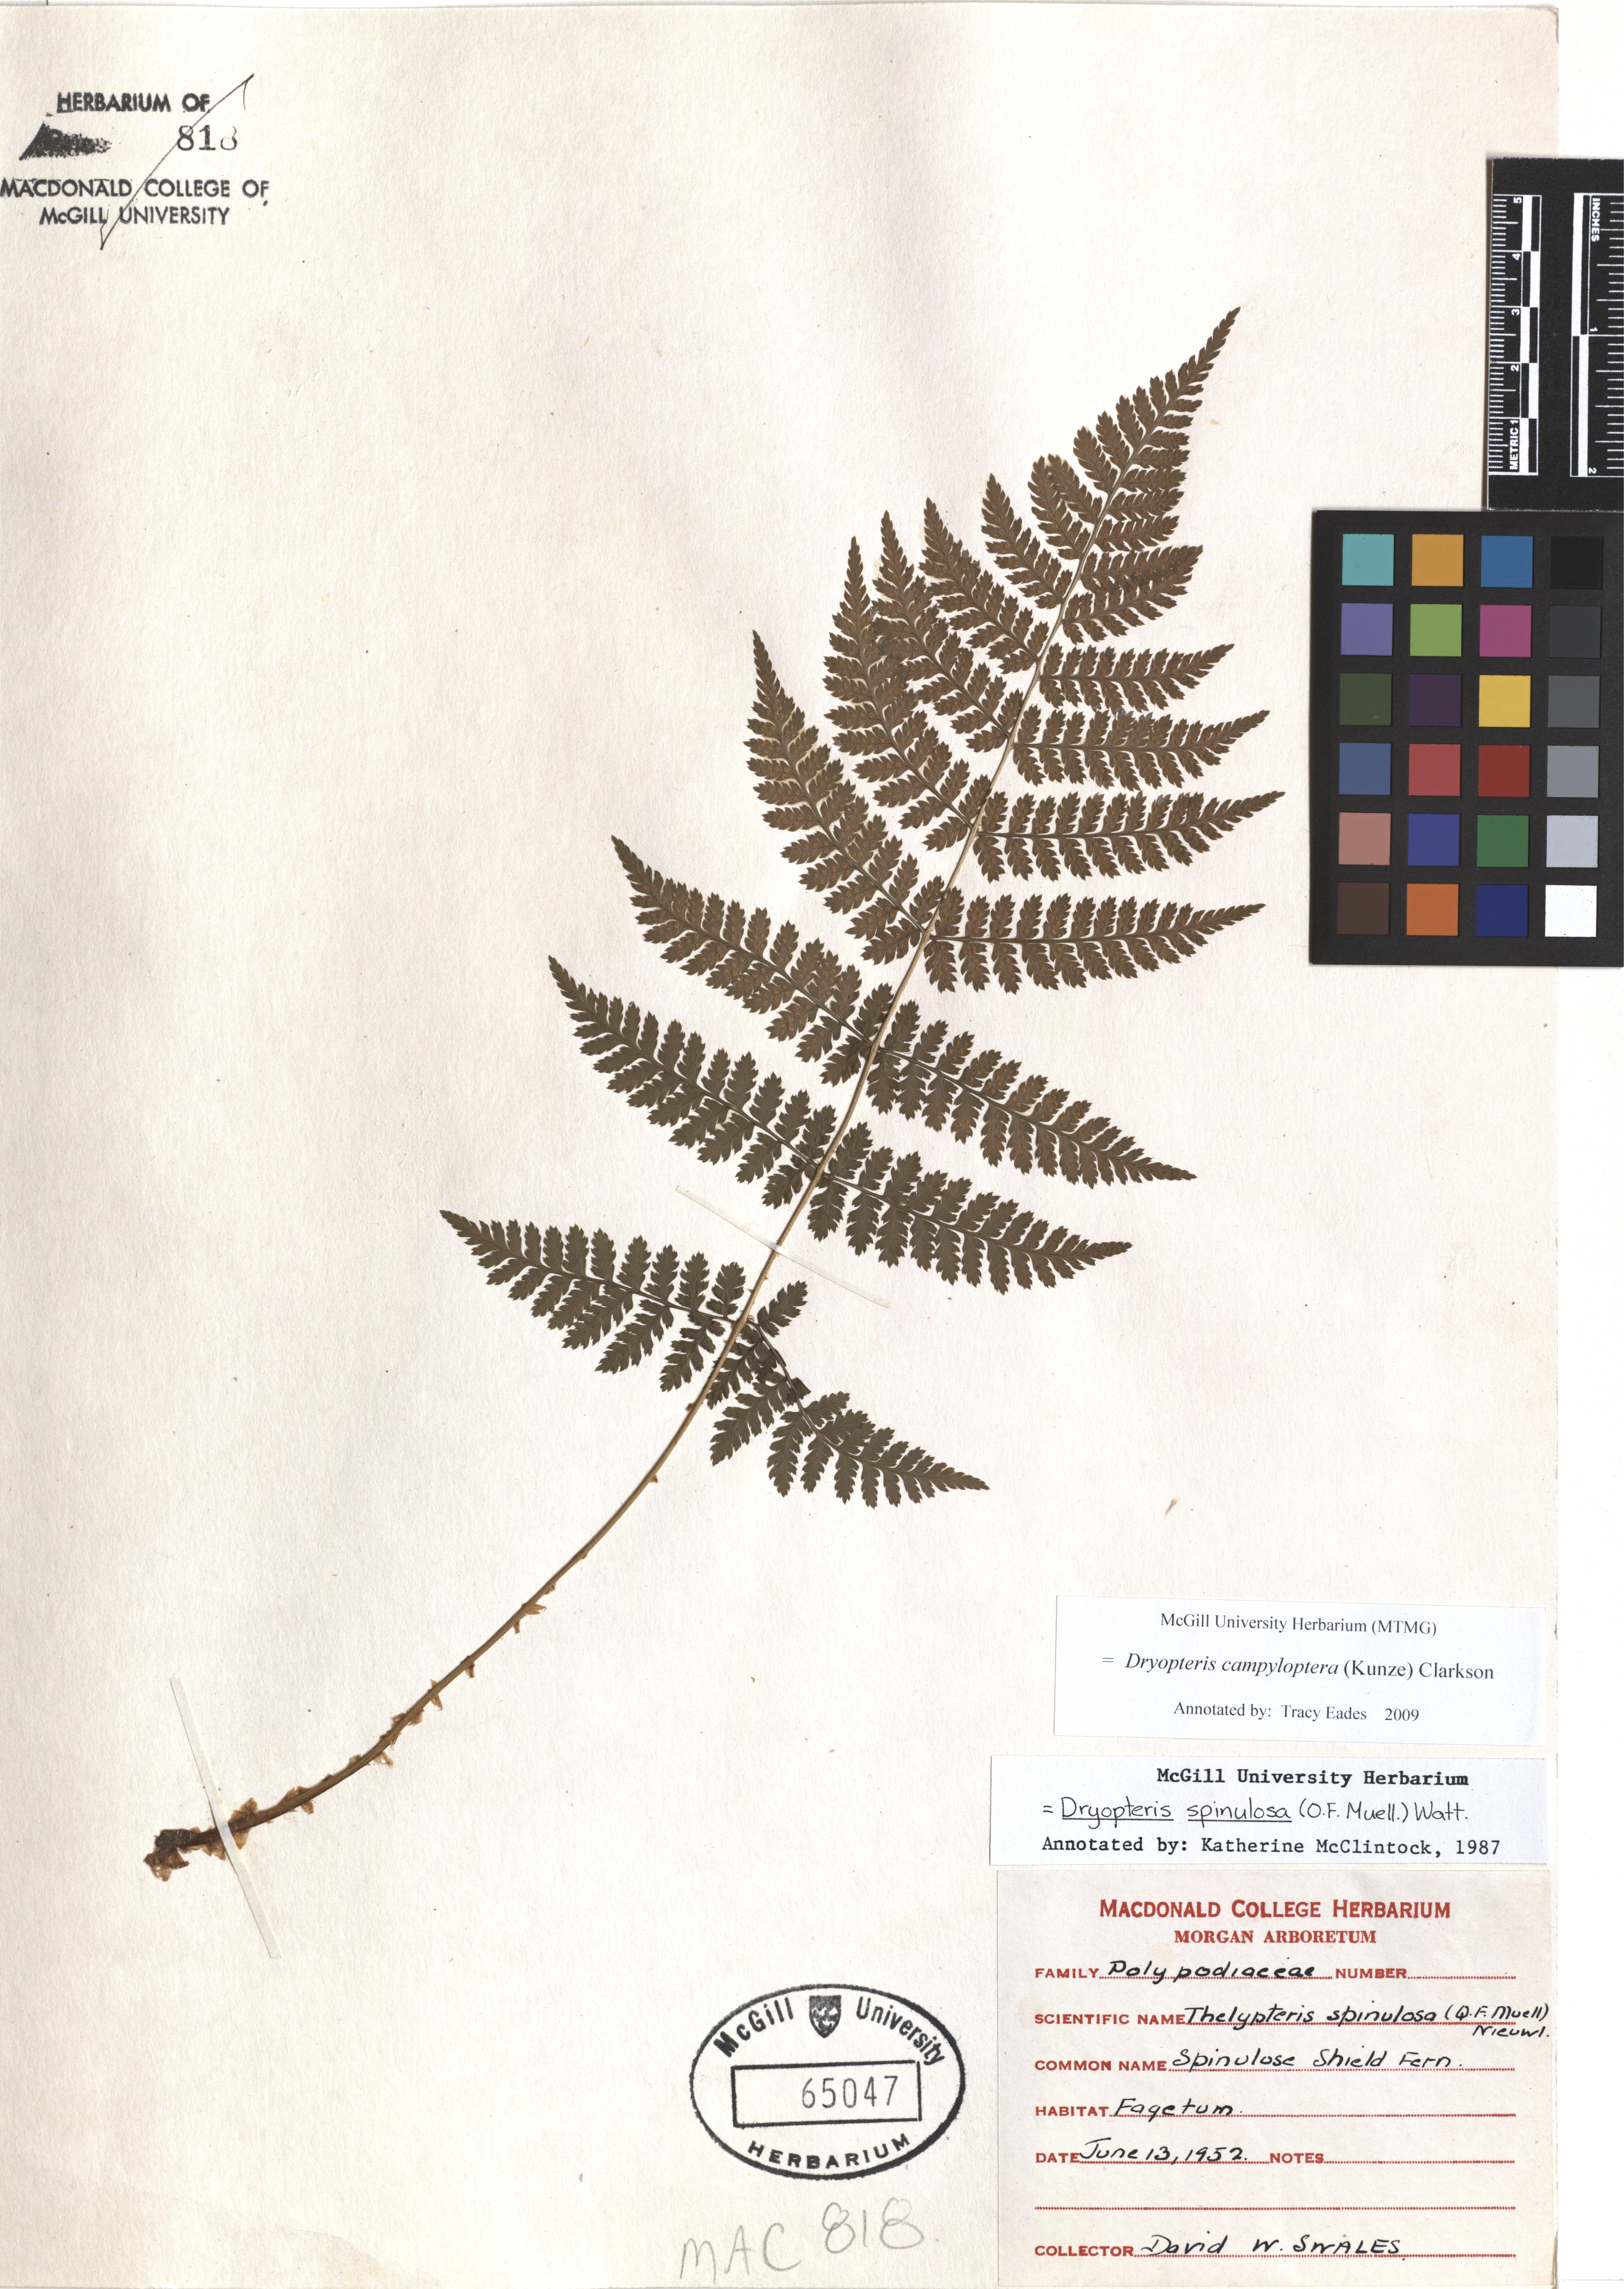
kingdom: Plantae
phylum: Tracheophyta
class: Polypodiopsida
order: Polypodiales
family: Dryopteridaceae
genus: Dryopteris
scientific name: Dryopteris campyloptera
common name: Mountain wood fern
